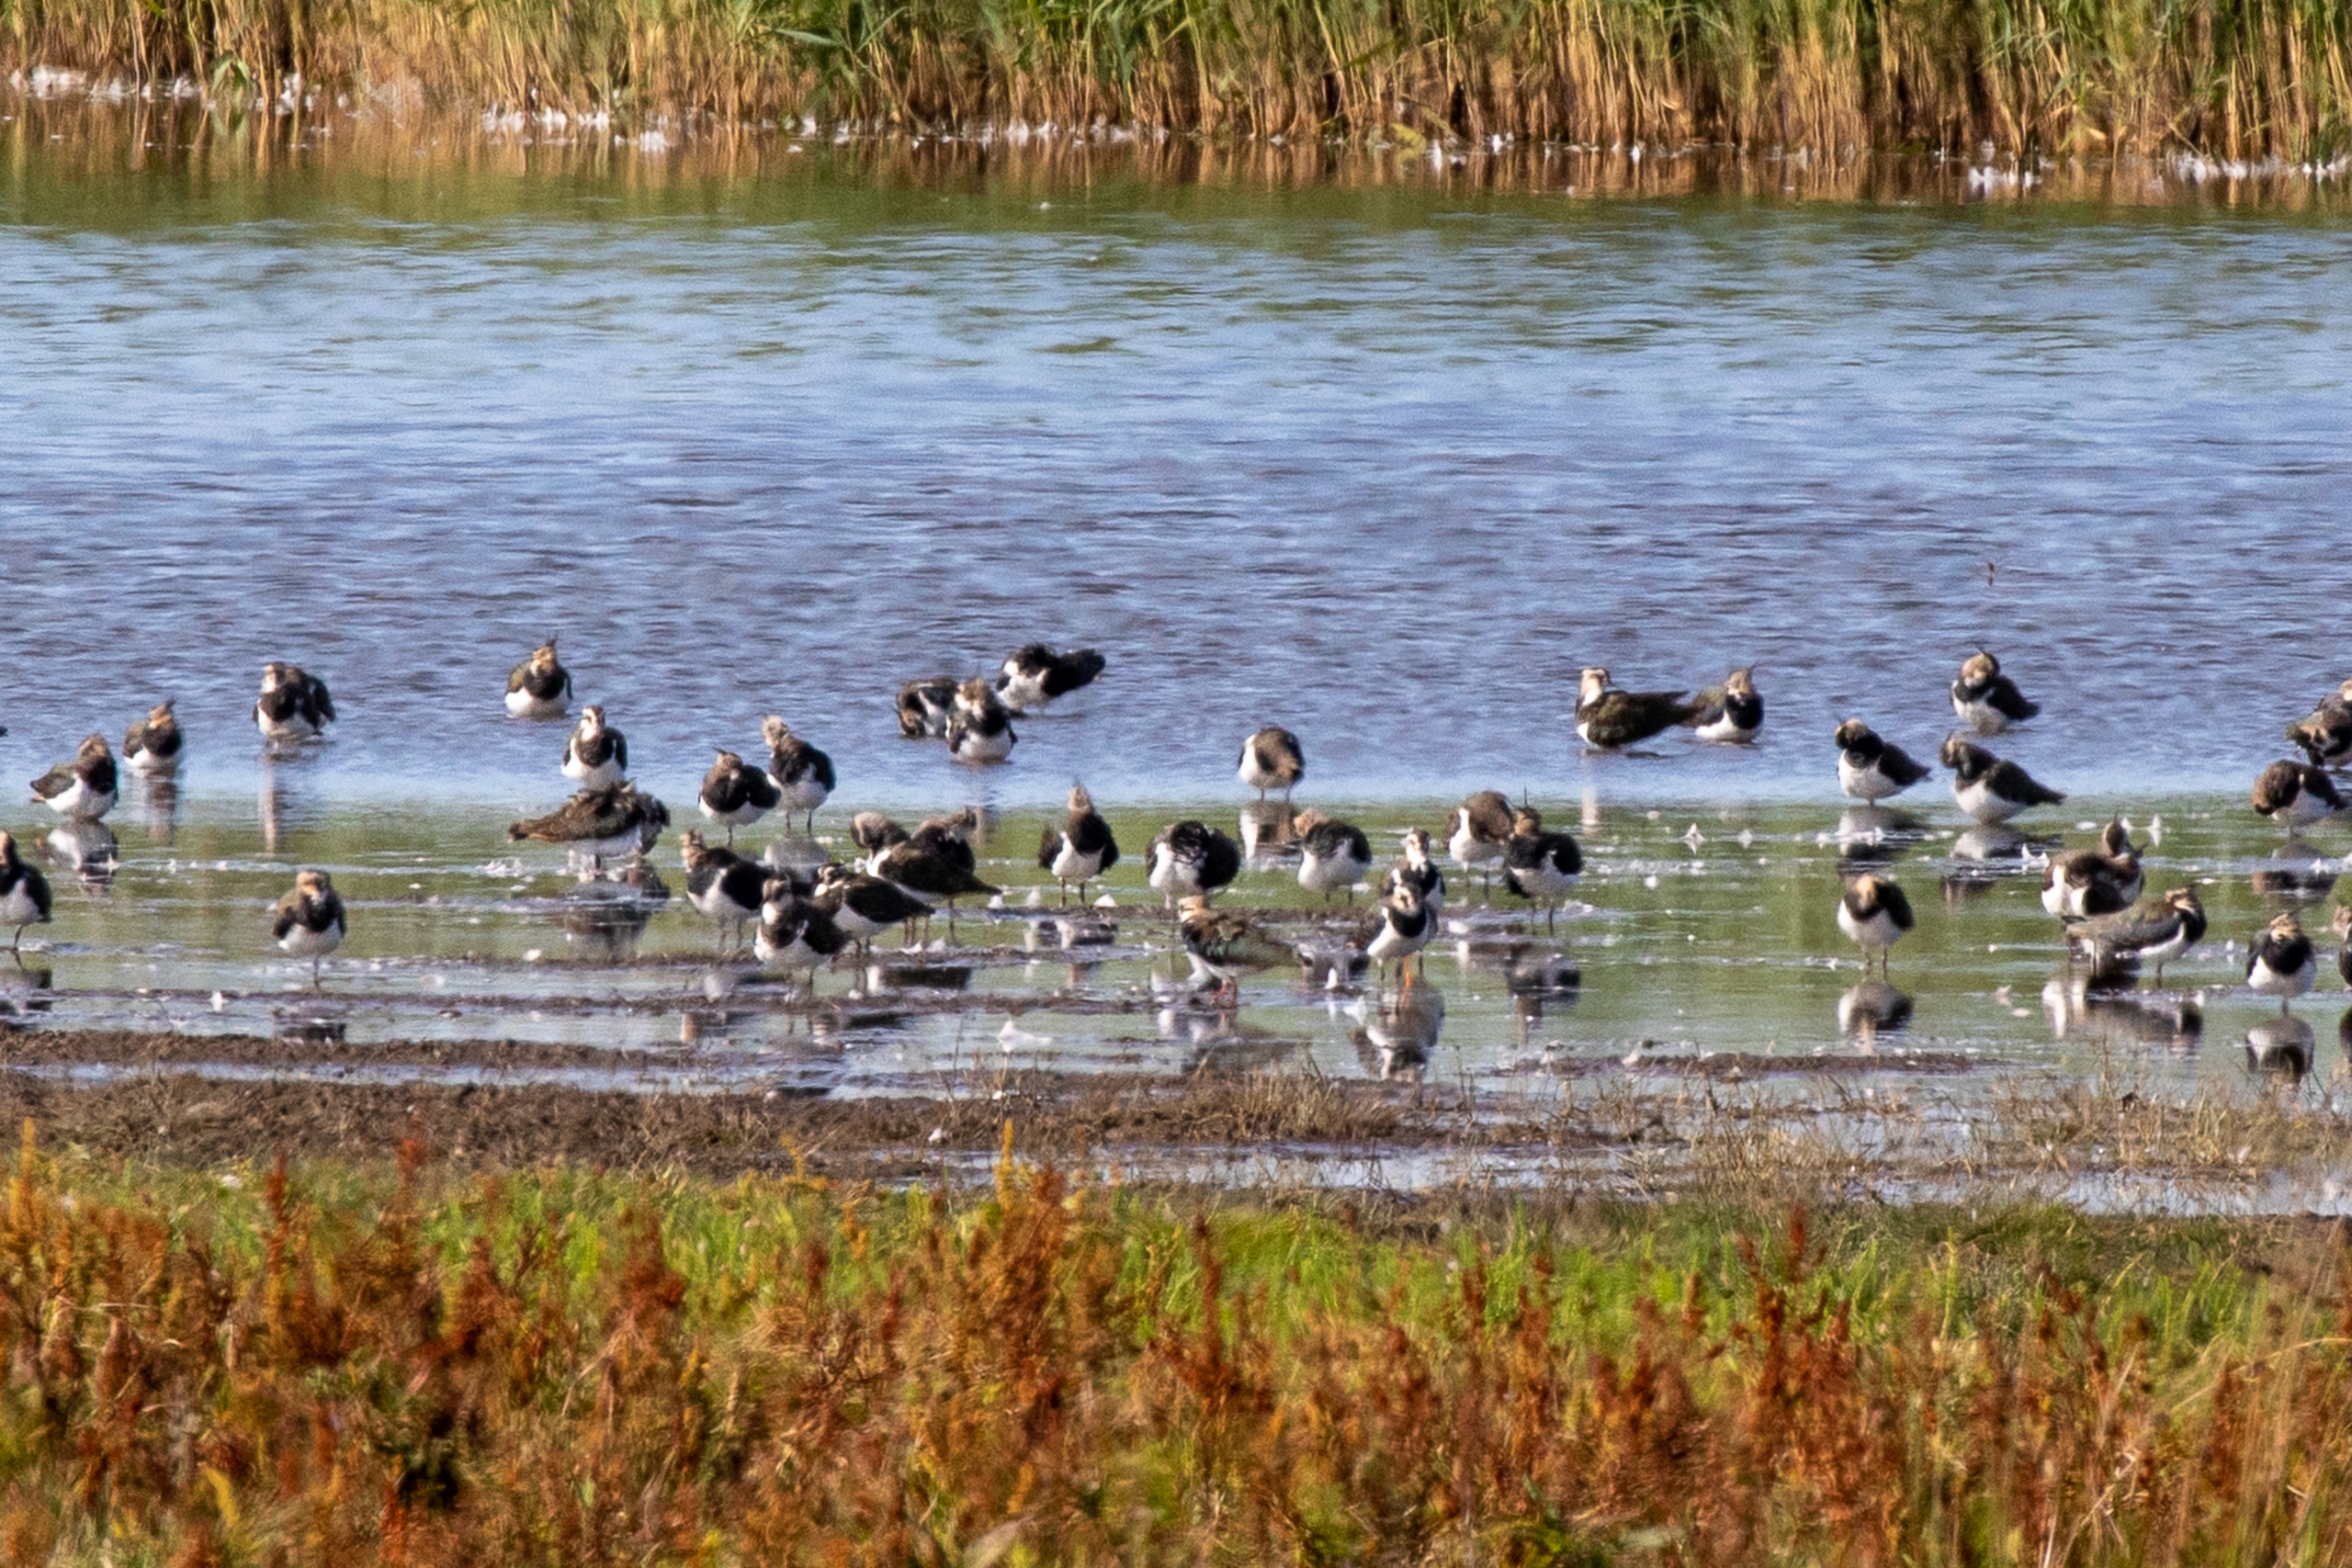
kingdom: Animalia
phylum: Chordata
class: Aves
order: Charadriiformes
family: Charadriidae
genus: Vanellus
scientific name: Vanellus vanellus
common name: Vibe
